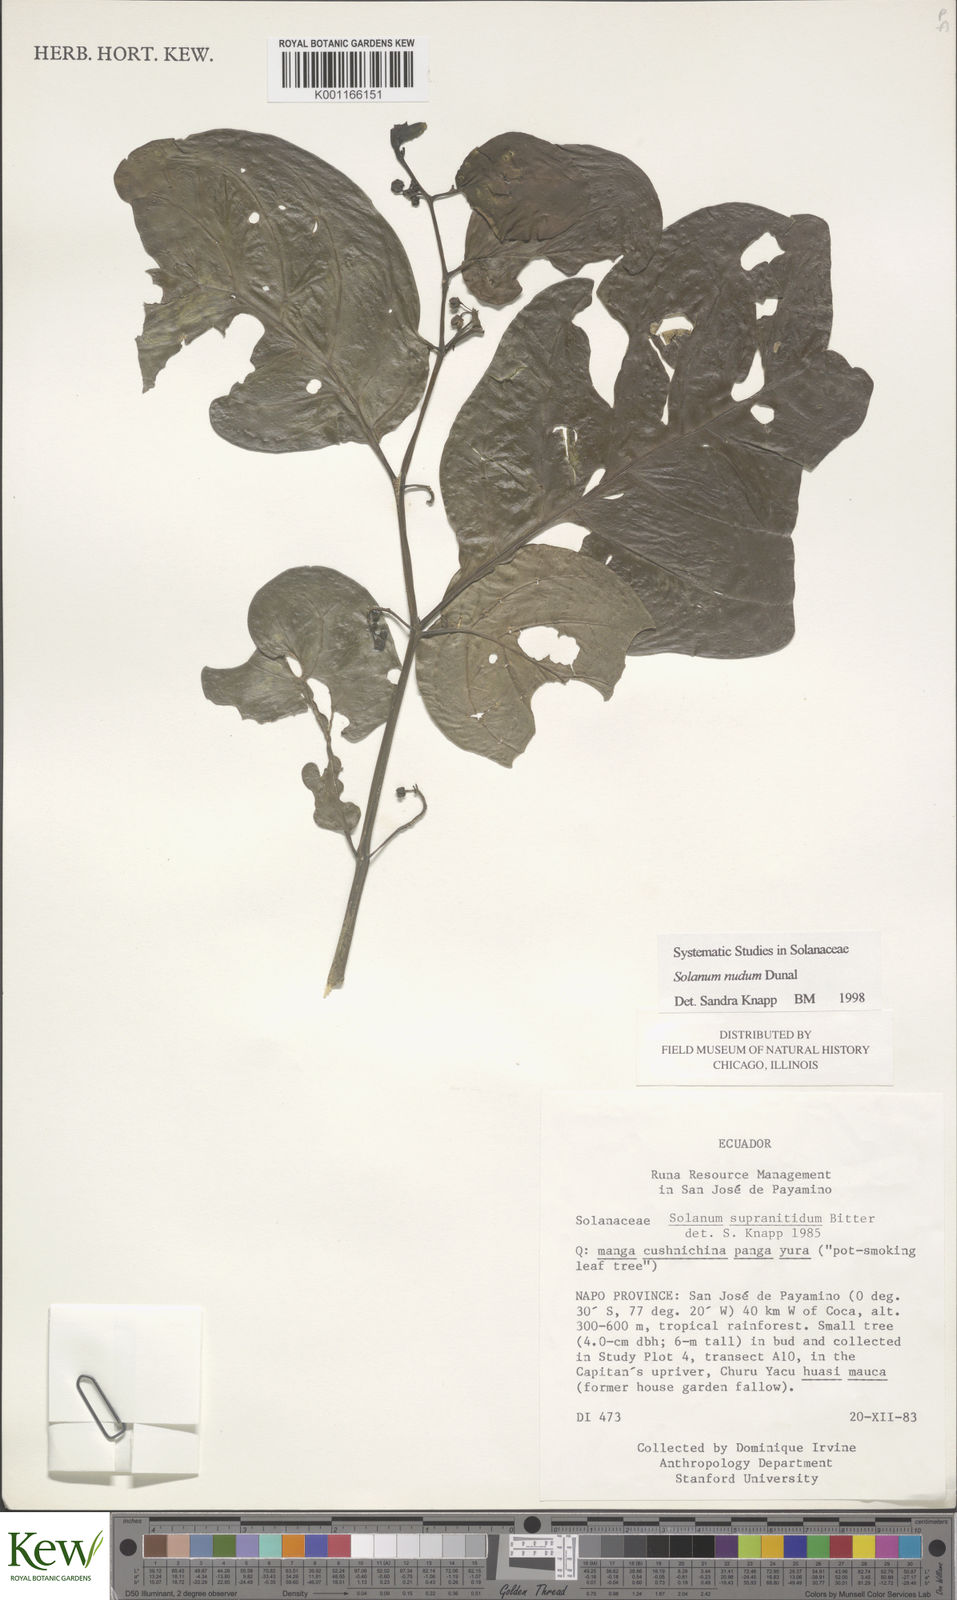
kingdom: Plantae
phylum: Tracheophyta
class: Magnoliopsida
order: Solanales
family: Solanaceae
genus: Solanum
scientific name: Solanum nudum
